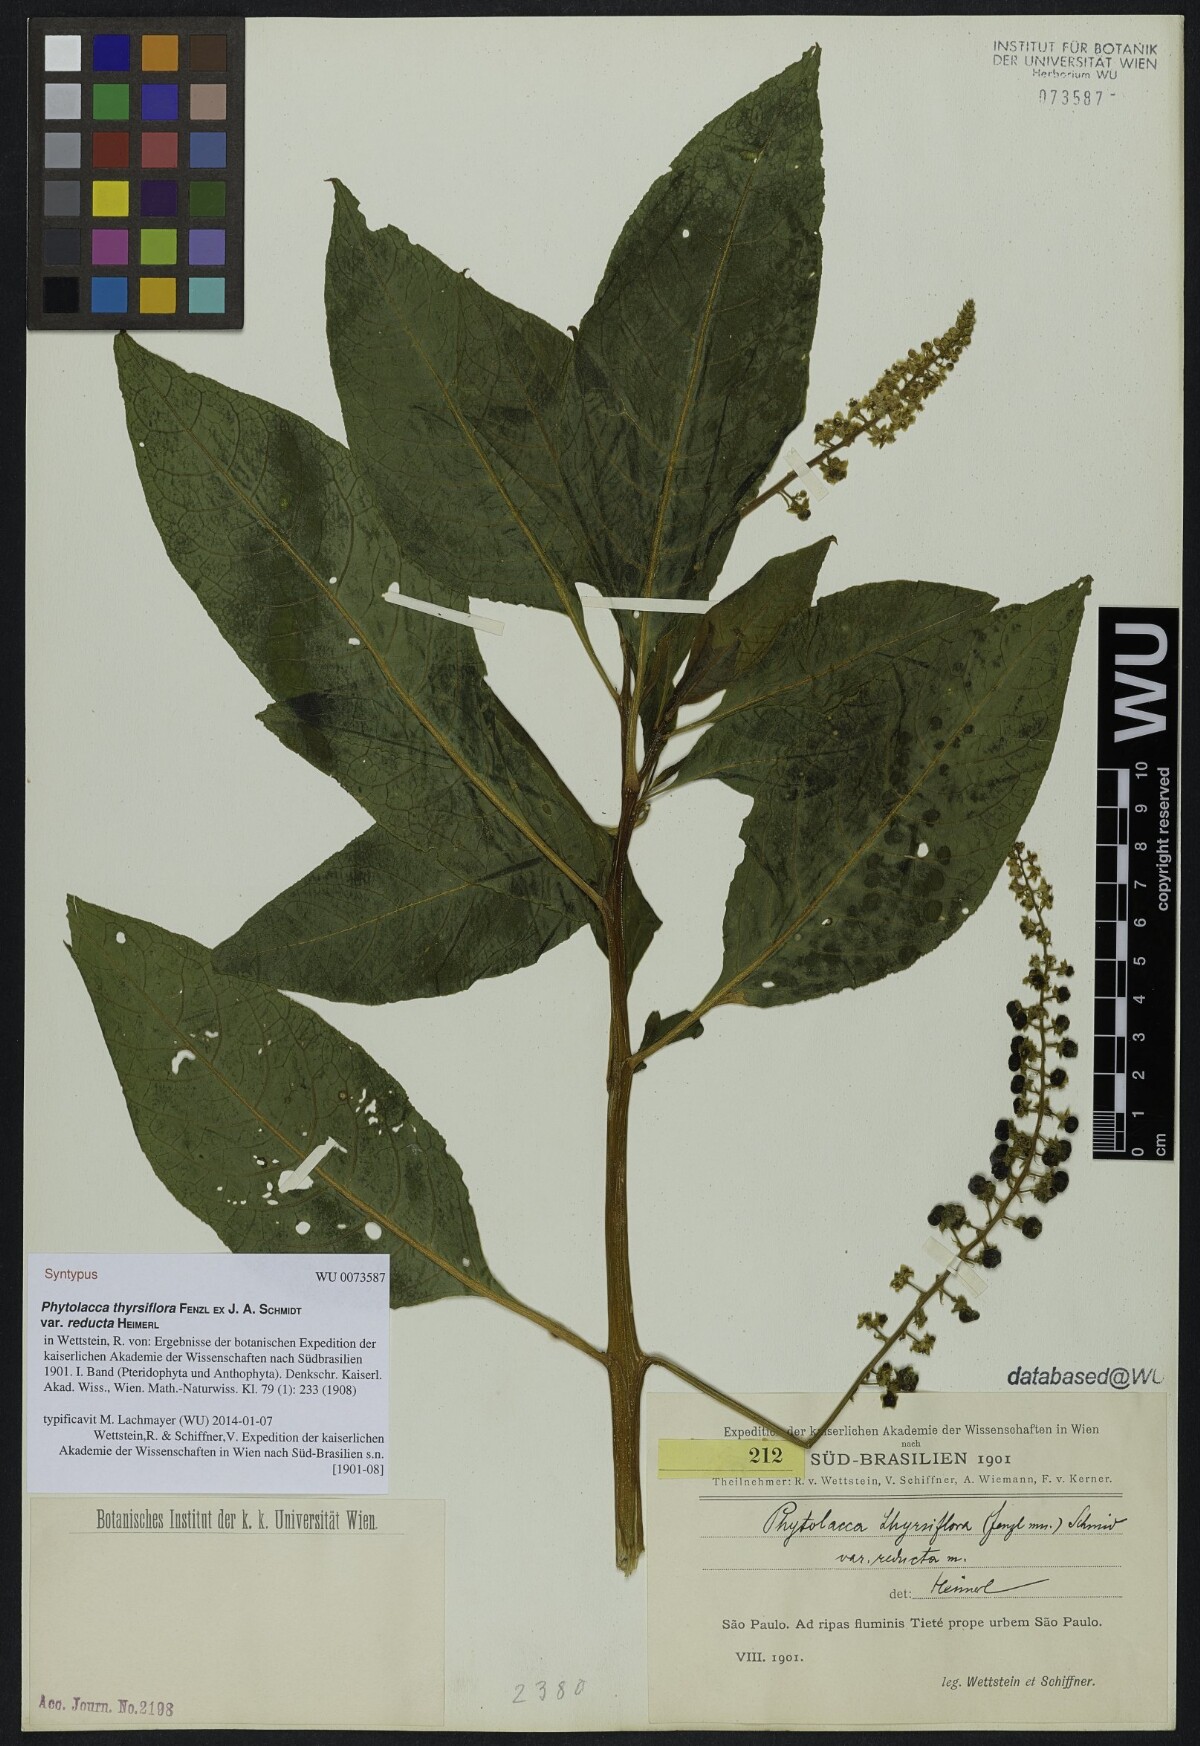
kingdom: Plantae
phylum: Tracheophyta
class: Magnoliopsida
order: Caryophyllales
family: Phytolaccaceae
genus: Phytolacca
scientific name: Phytolacca thyrsiflora
